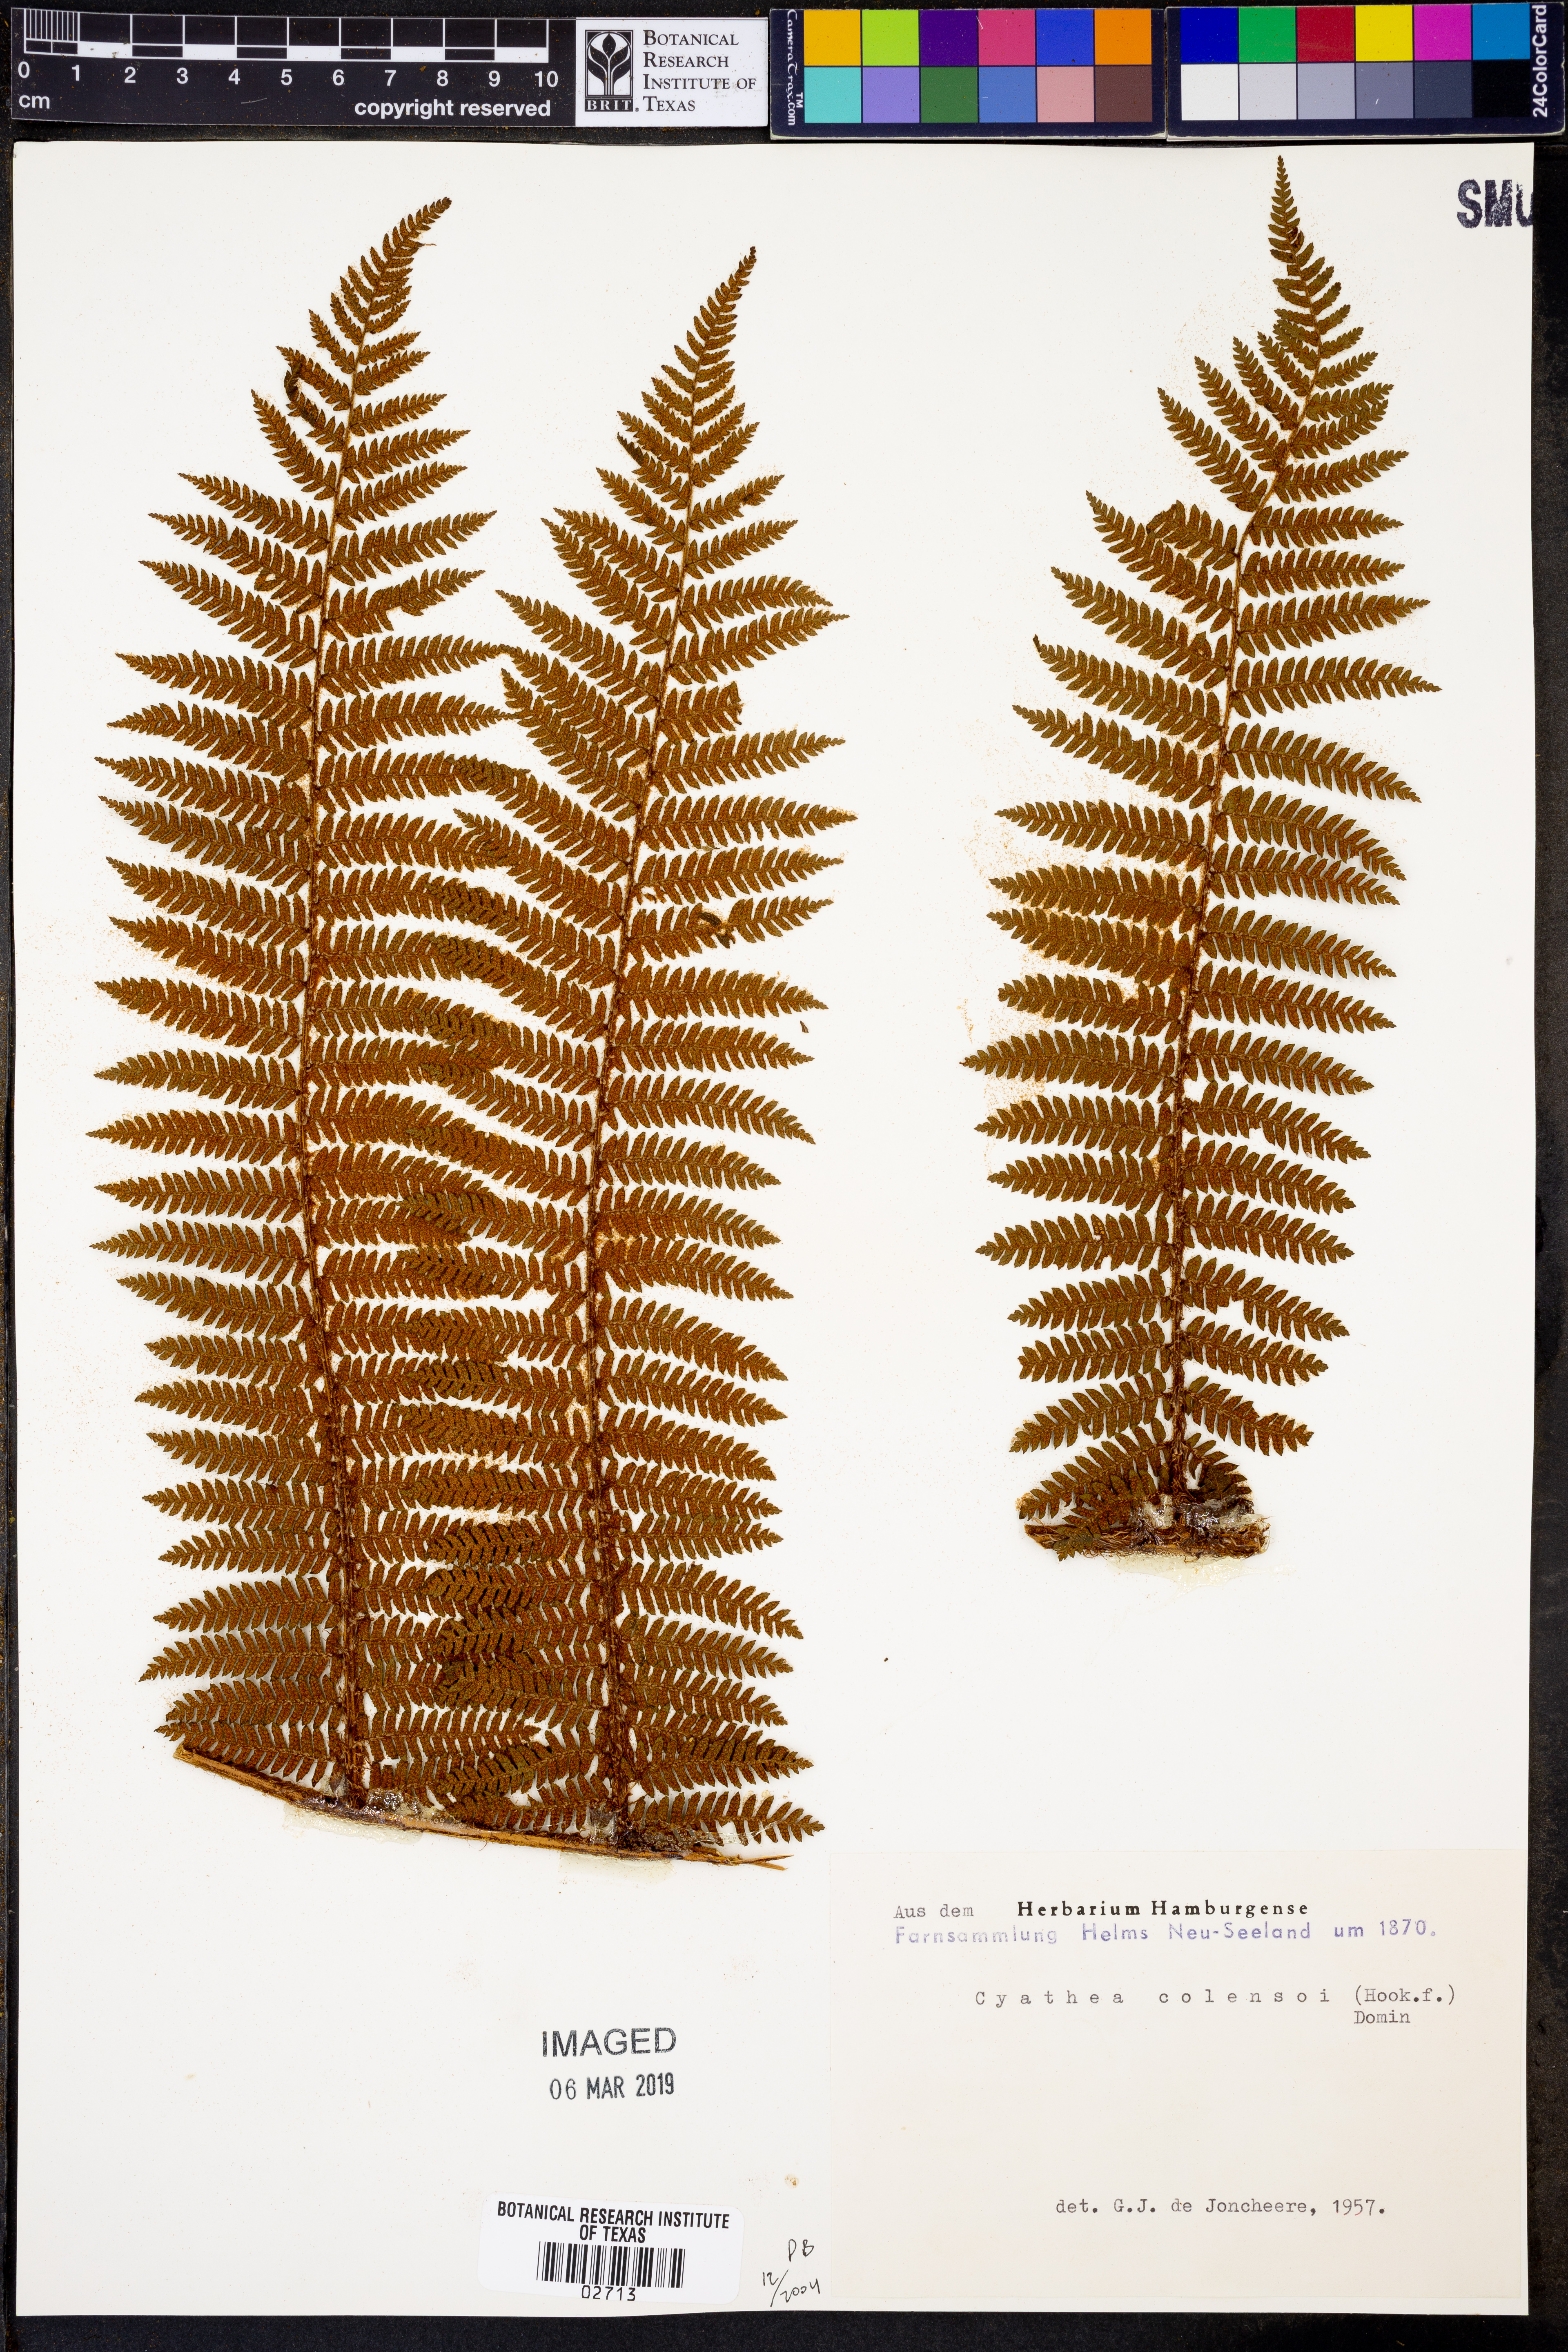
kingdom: Plantae
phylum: Tracheophyta
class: Polypodiopsida
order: Cyatheales
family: Cyatheaceae
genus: Alsophila
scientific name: Alsophila colensoi
